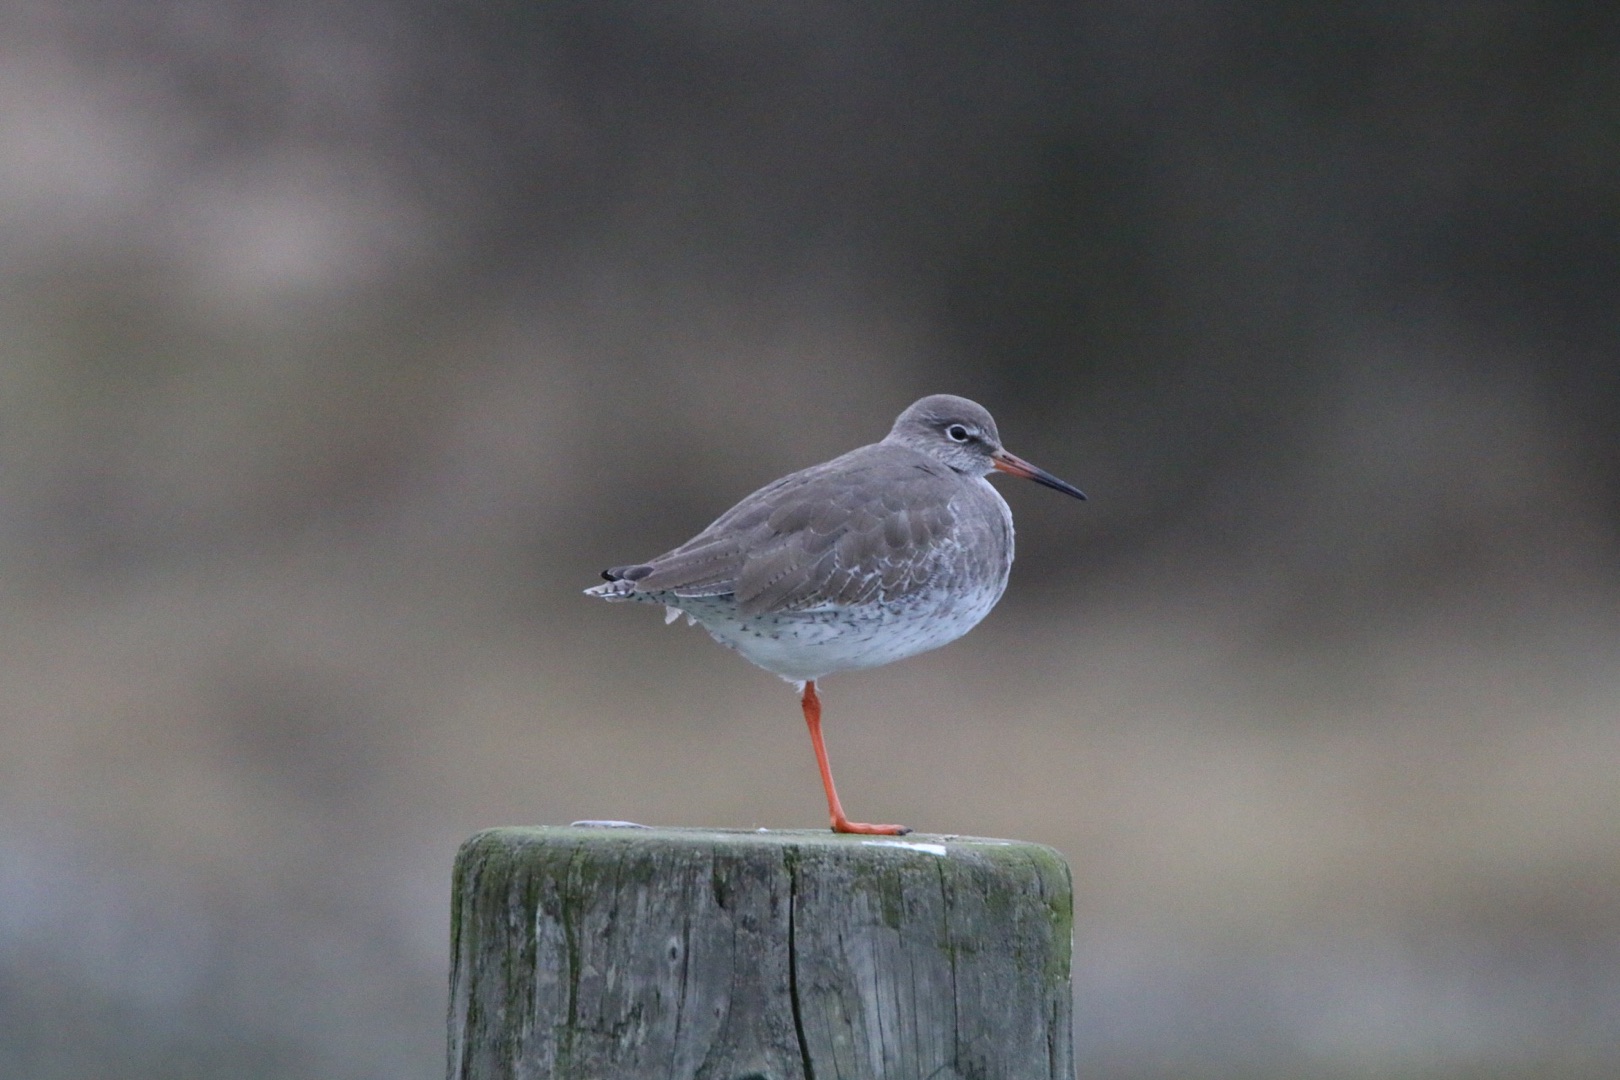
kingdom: Animalia
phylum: Chordata
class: Aves
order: Charadriiformes
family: Scolopacidae
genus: Tringa
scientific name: Tringa totanus
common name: Rødben
